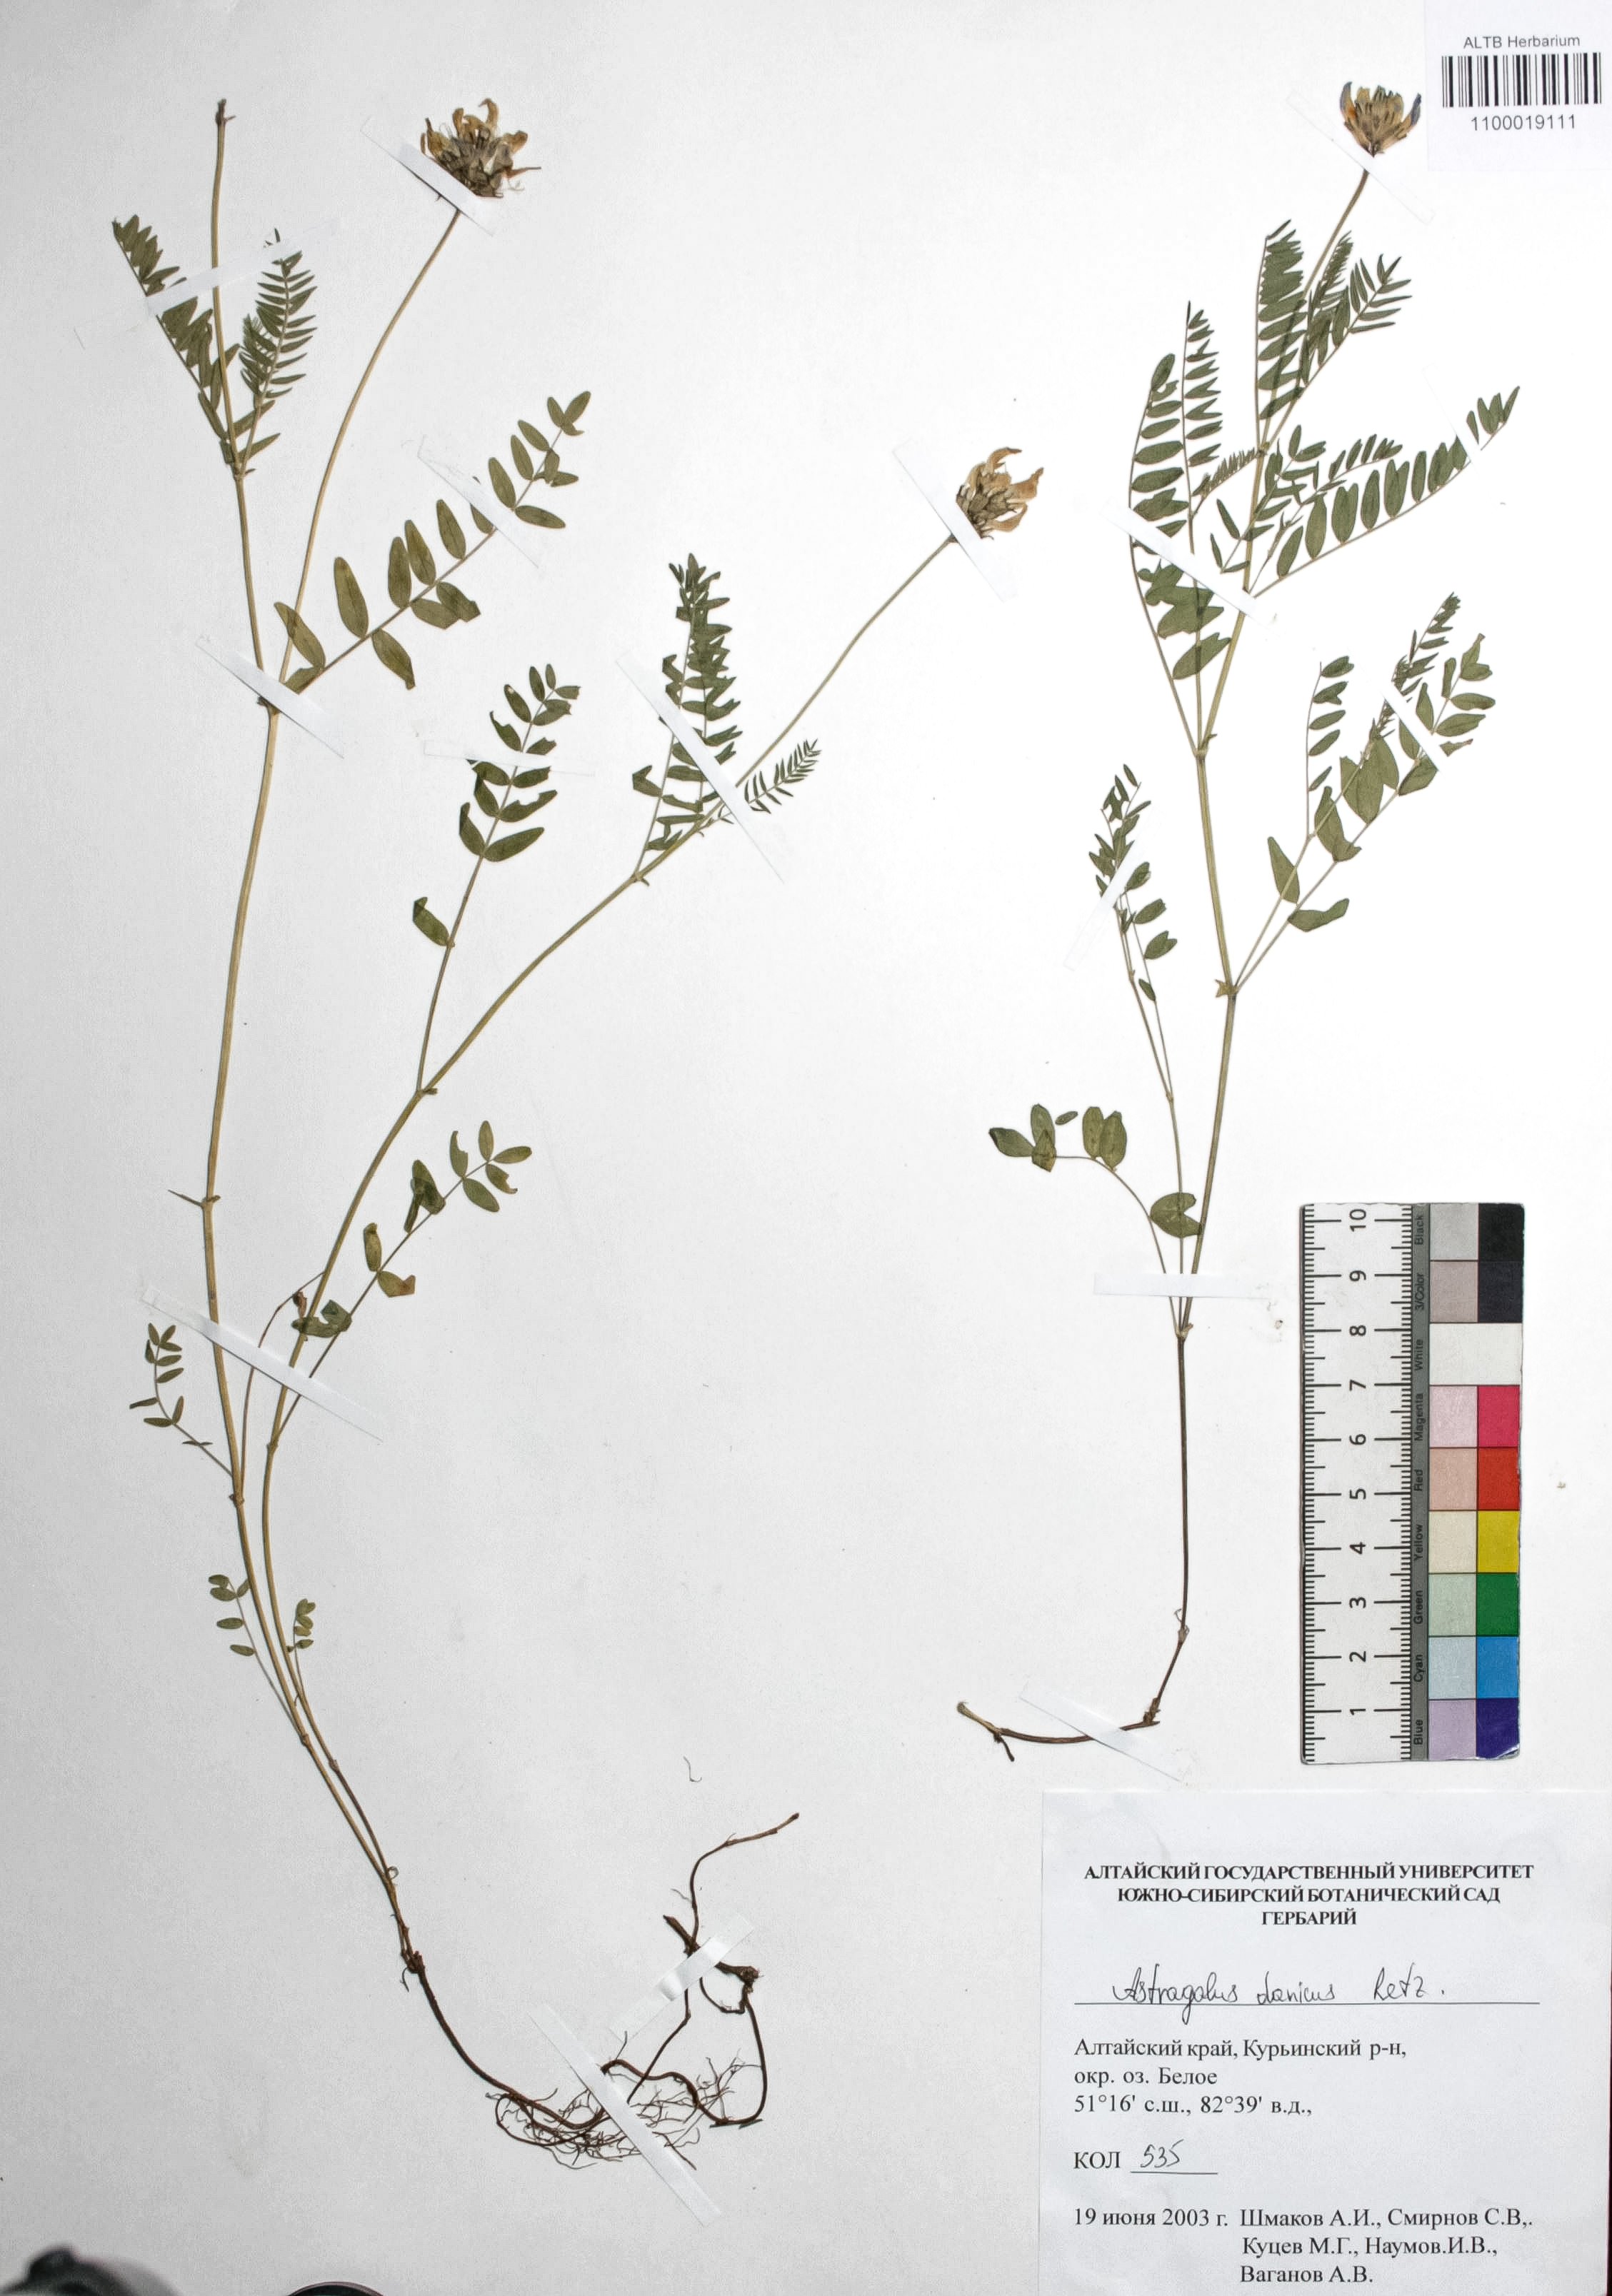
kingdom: Plantae
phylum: Tracheophyta
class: Magnoliopsida
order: Fabales
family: Fabaceae
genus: Astragalus
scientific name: Astragalus danicus
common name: Purple milk-vetch
